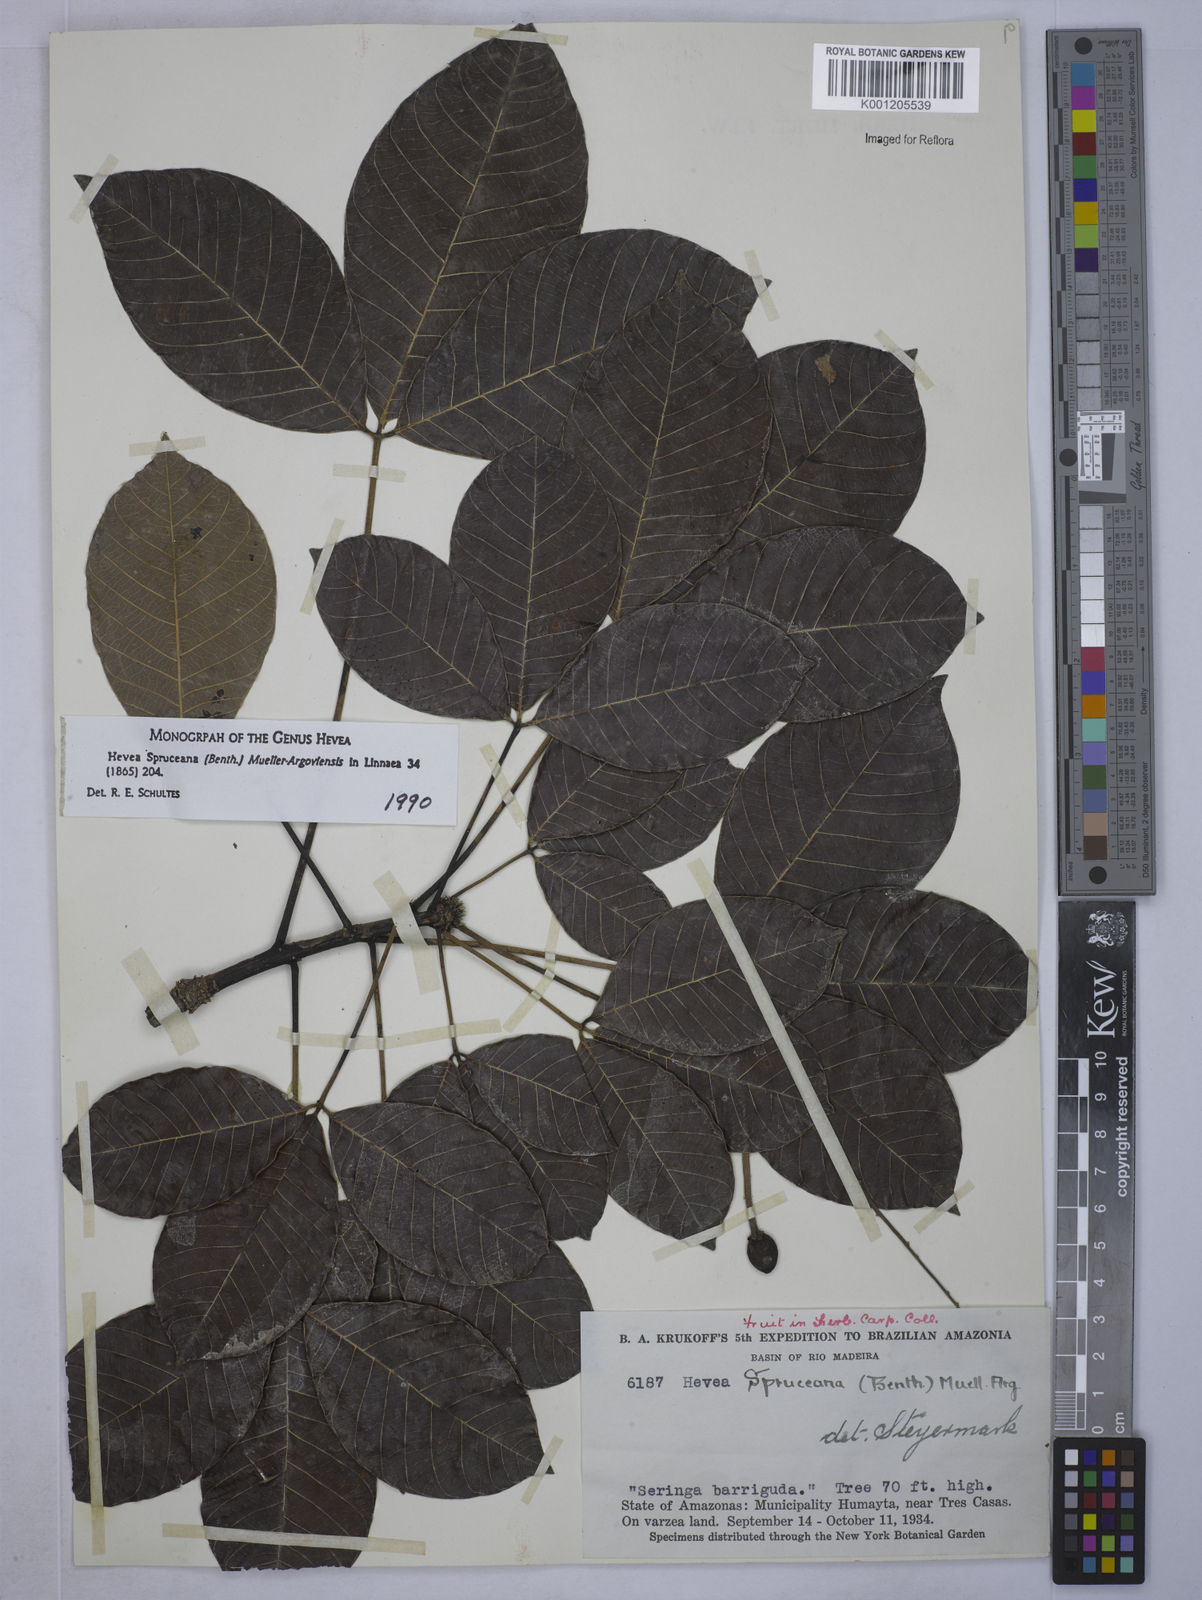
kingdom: Plantae
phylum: Tracheophyta
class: Magnoliopsida
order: Malpighiales
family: Euphorbiaceae
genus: Hevea
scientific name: Hevea
